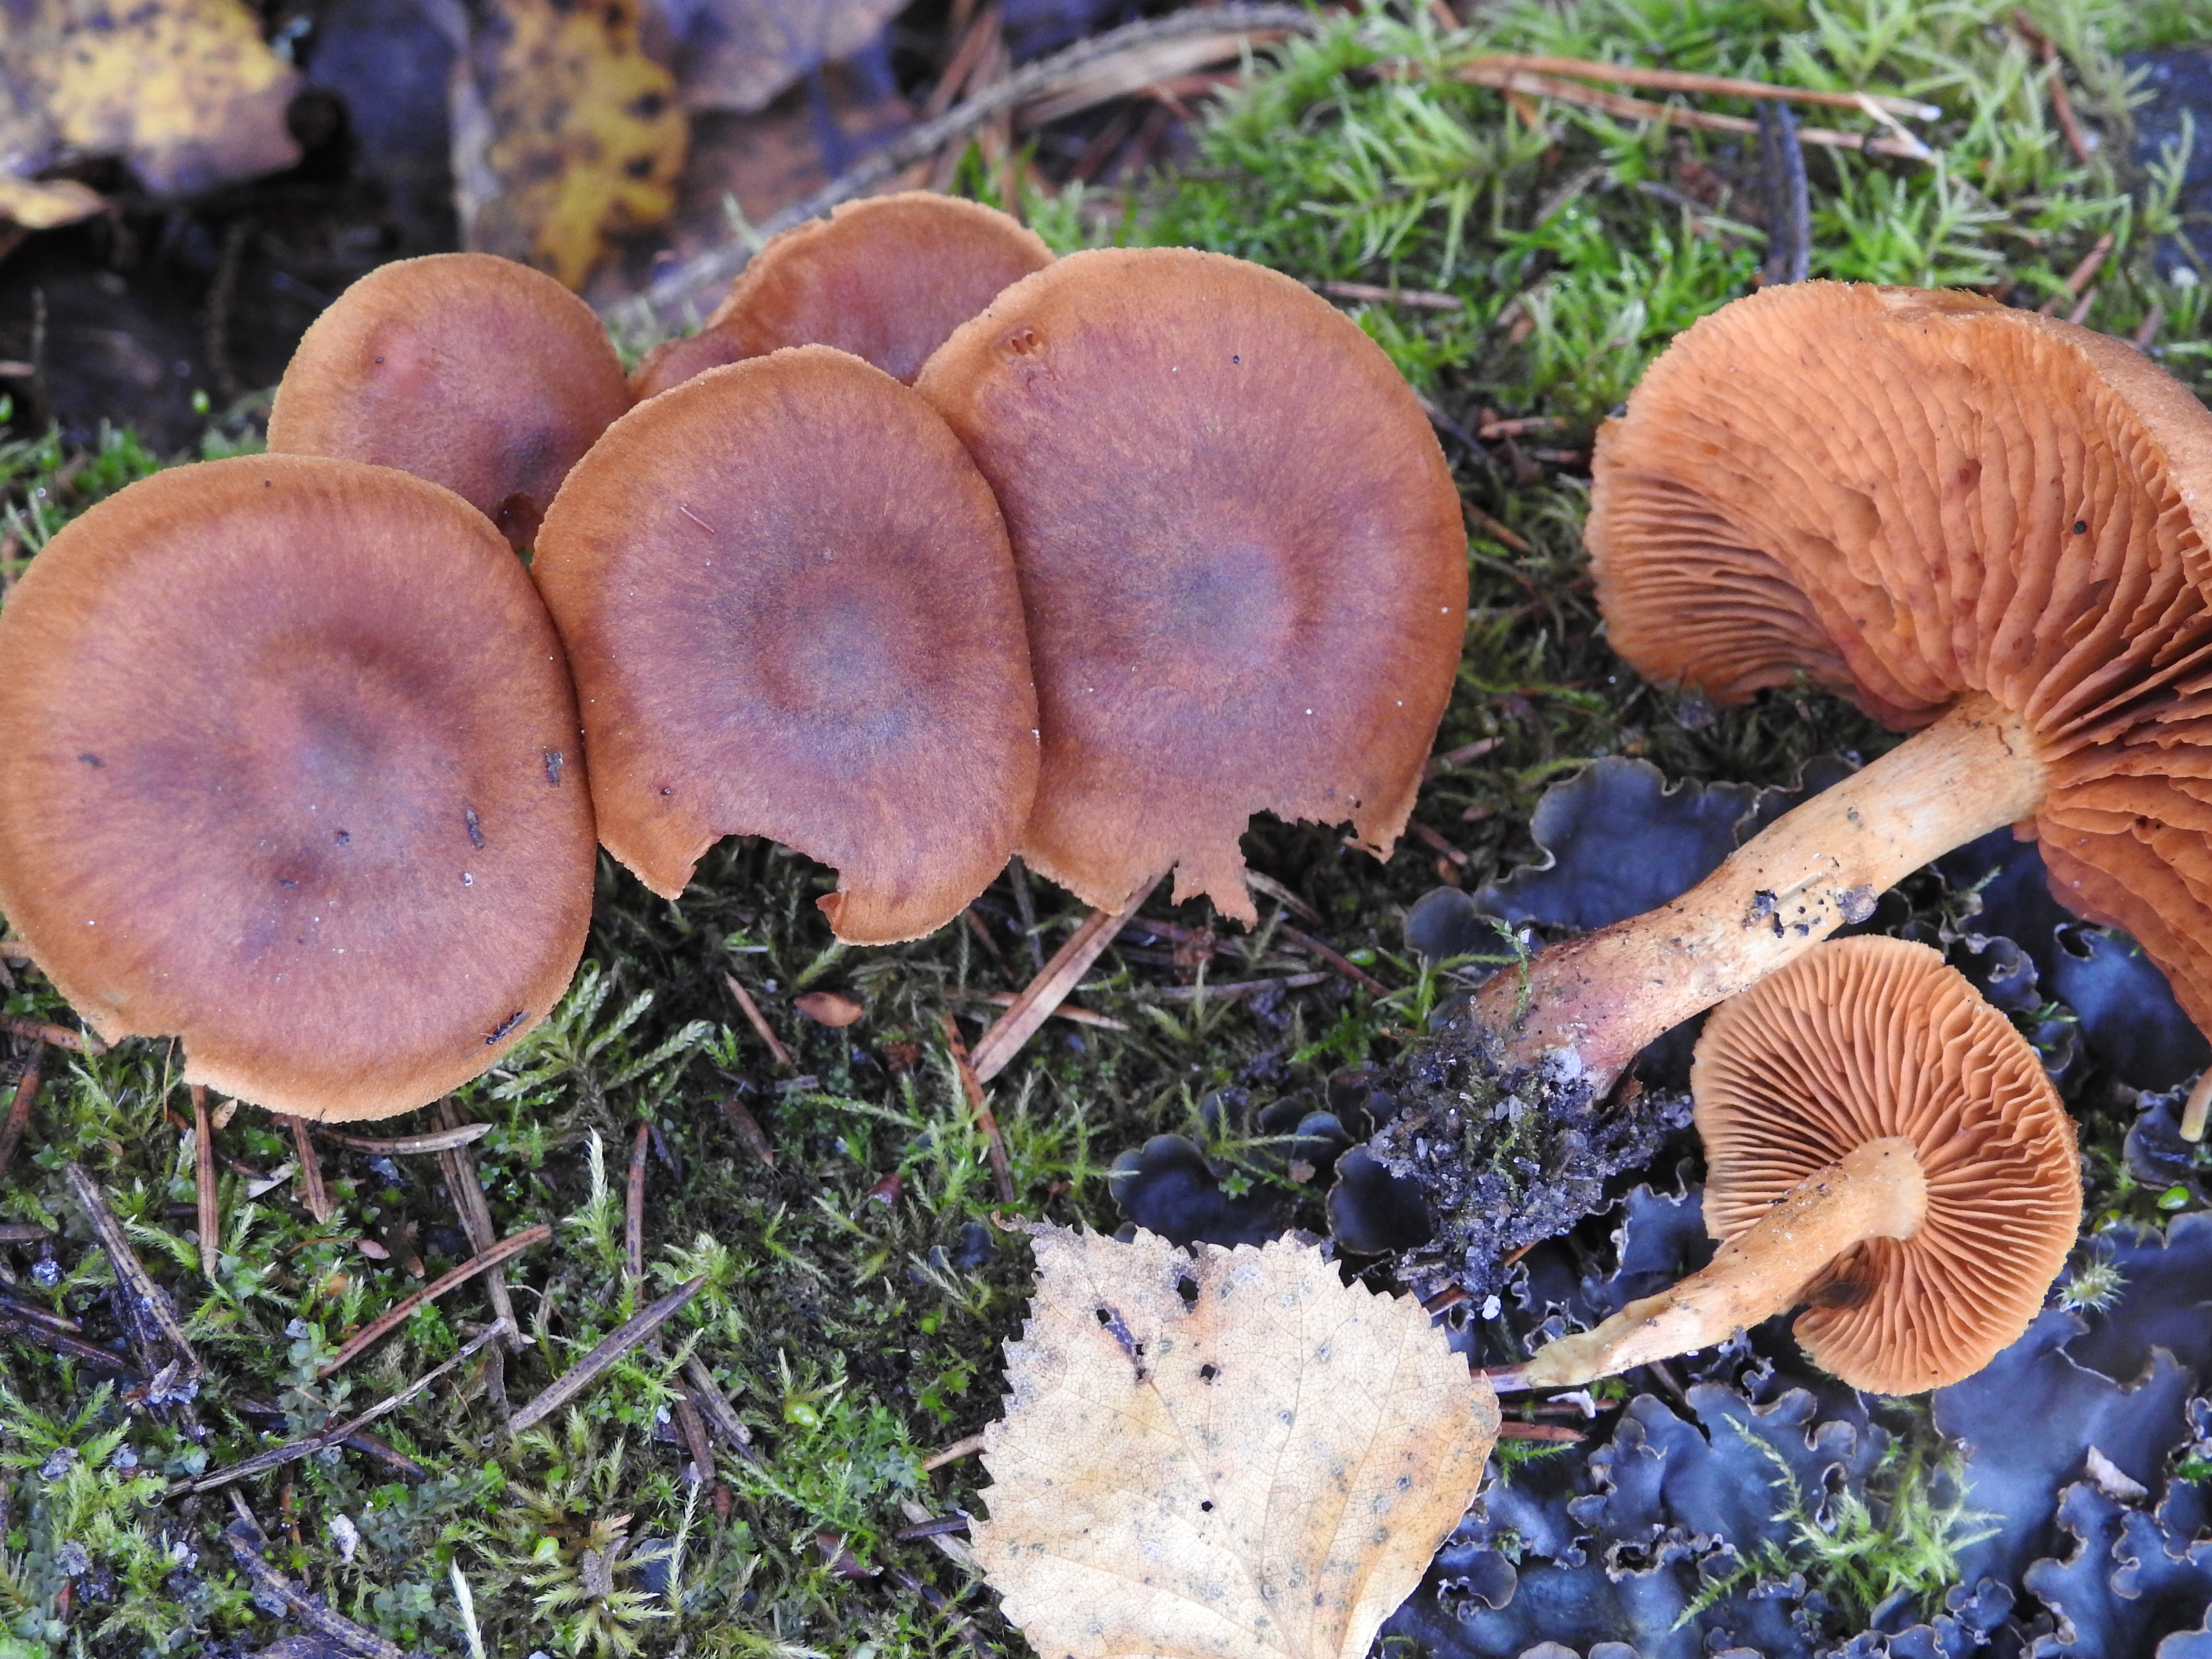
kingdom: Fungi
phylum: Basidiomycota
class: Agaricomycetes
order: Agaricales
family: Cortinariaceae
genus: Cortinarius
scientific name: Cortinarius cinnamomeus
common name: Cinnamon webcap
